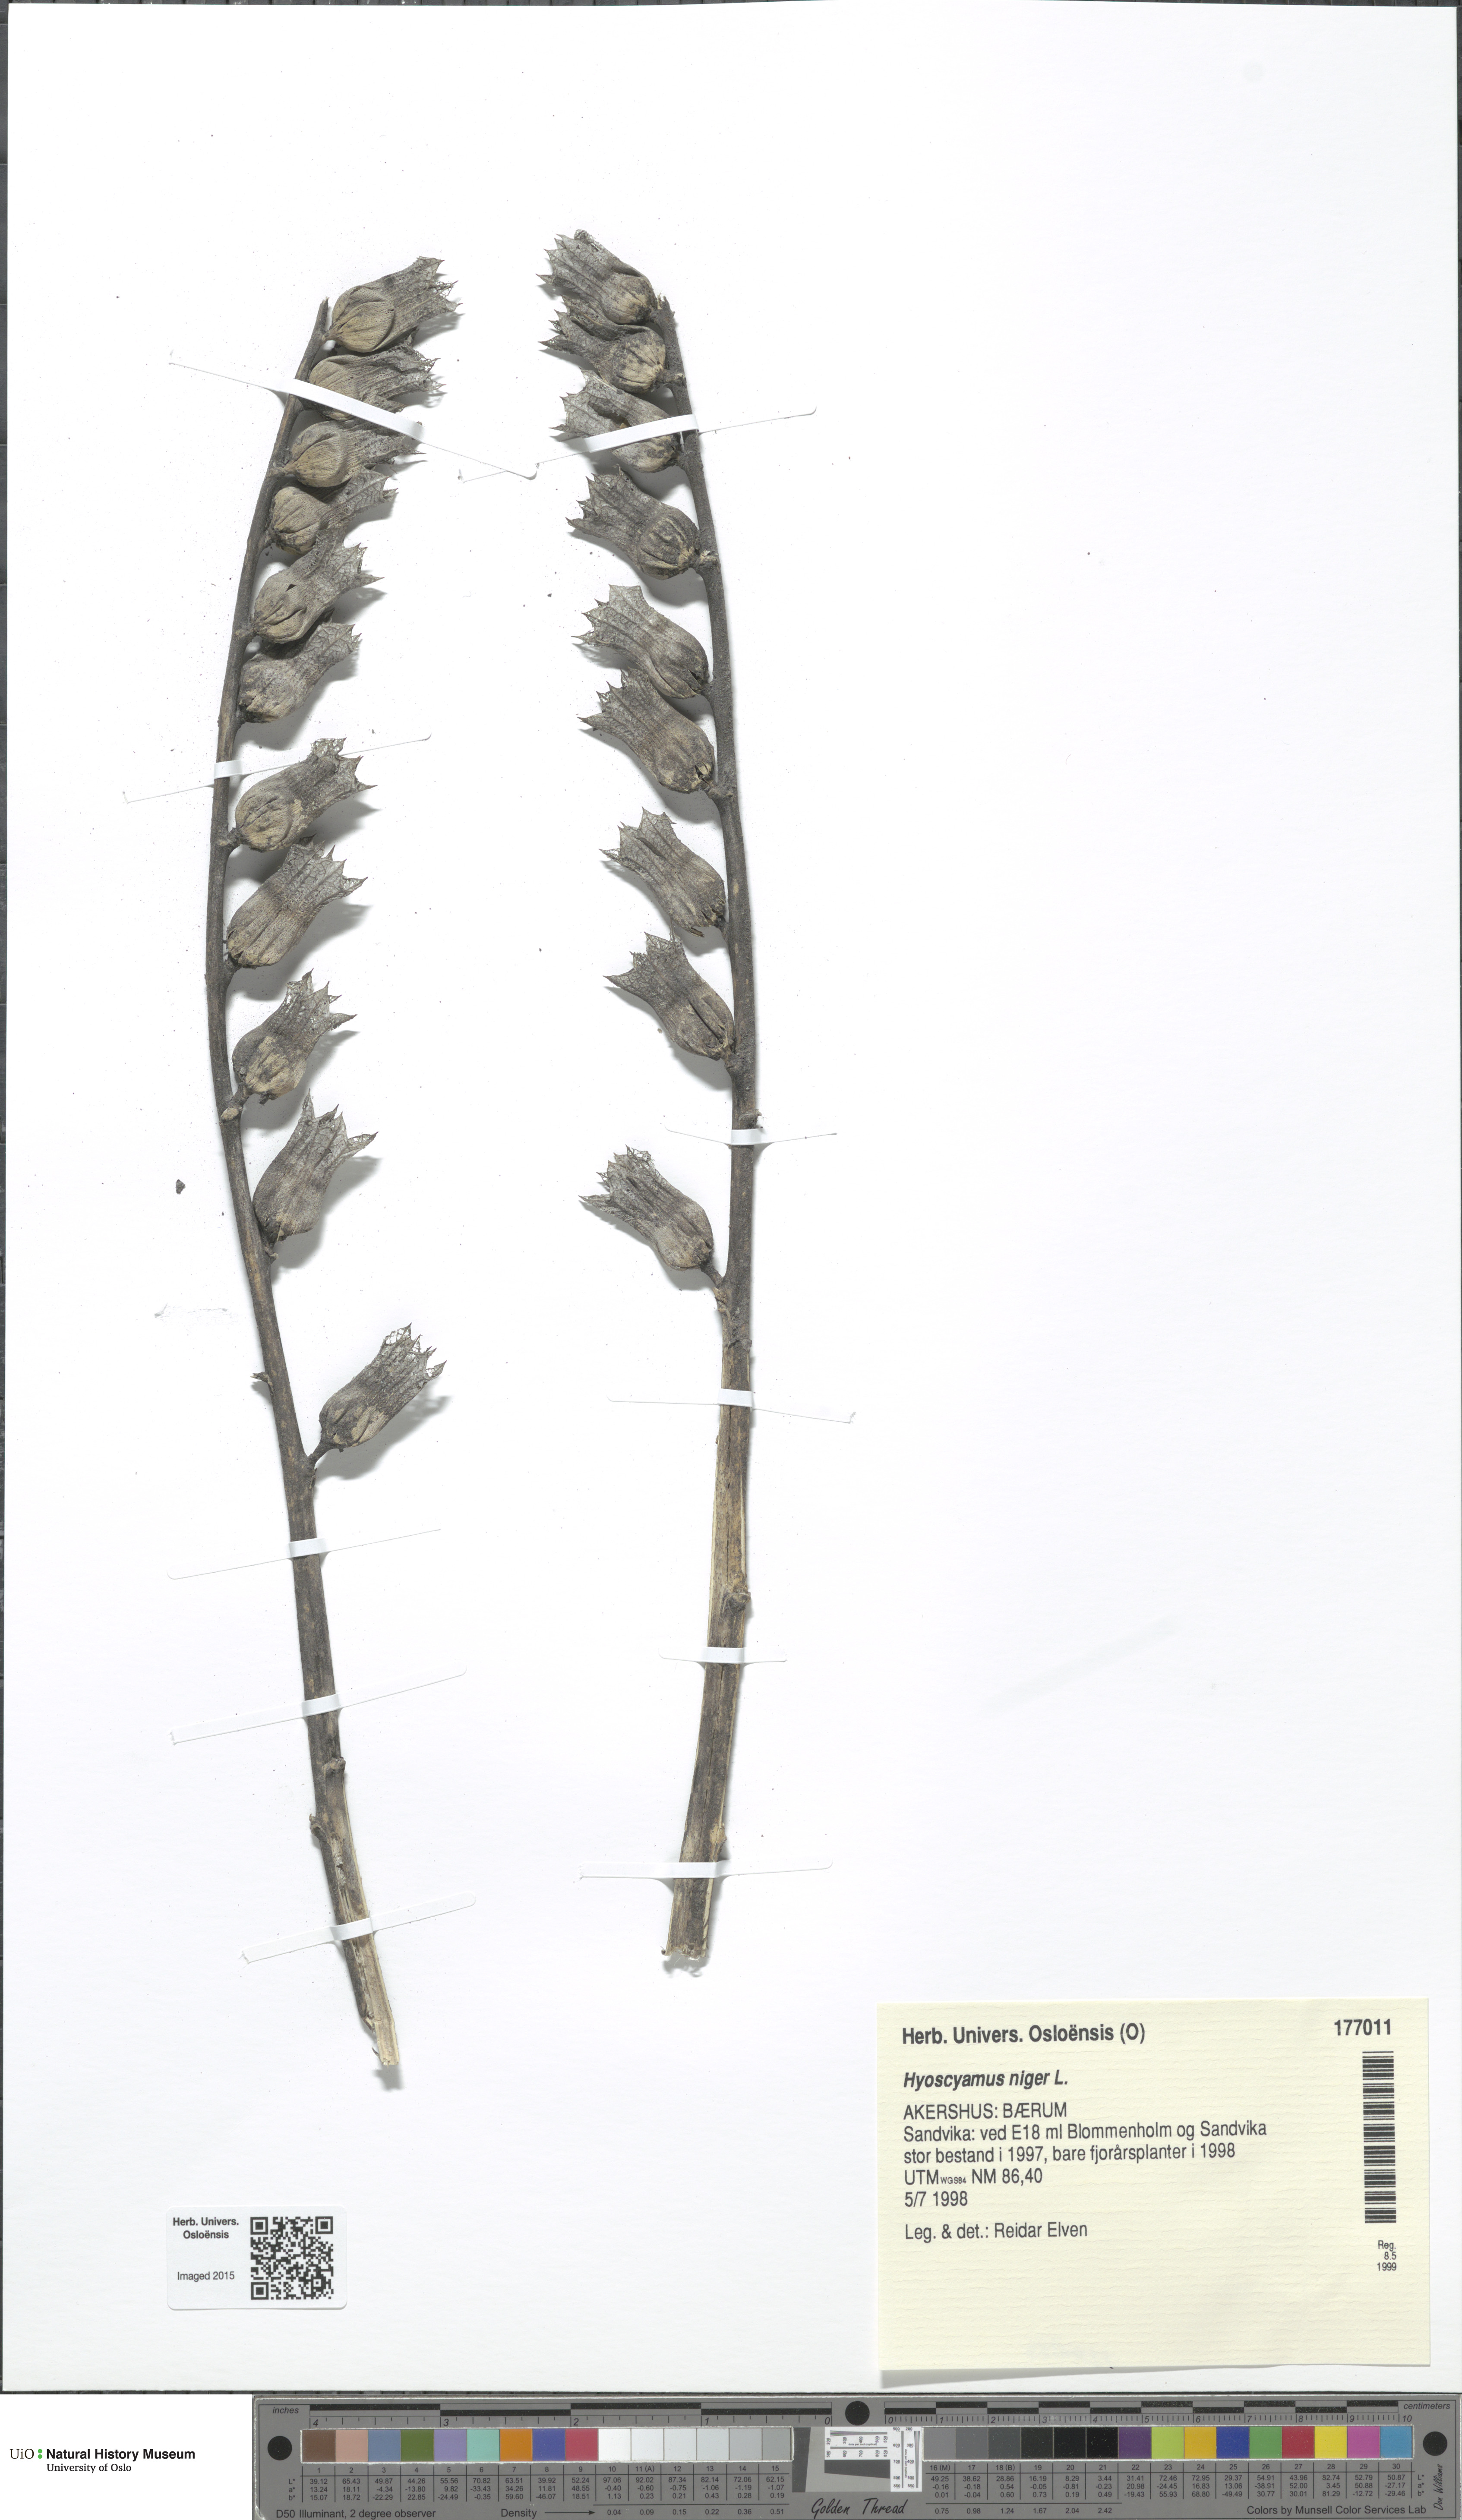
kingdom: Plantae
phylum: Tracheophyta
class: Magnoliopsida
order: Solanales
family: Solanaceae
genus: Hyoscyamus
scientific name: Hyoscyamus niger
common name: Henbane
